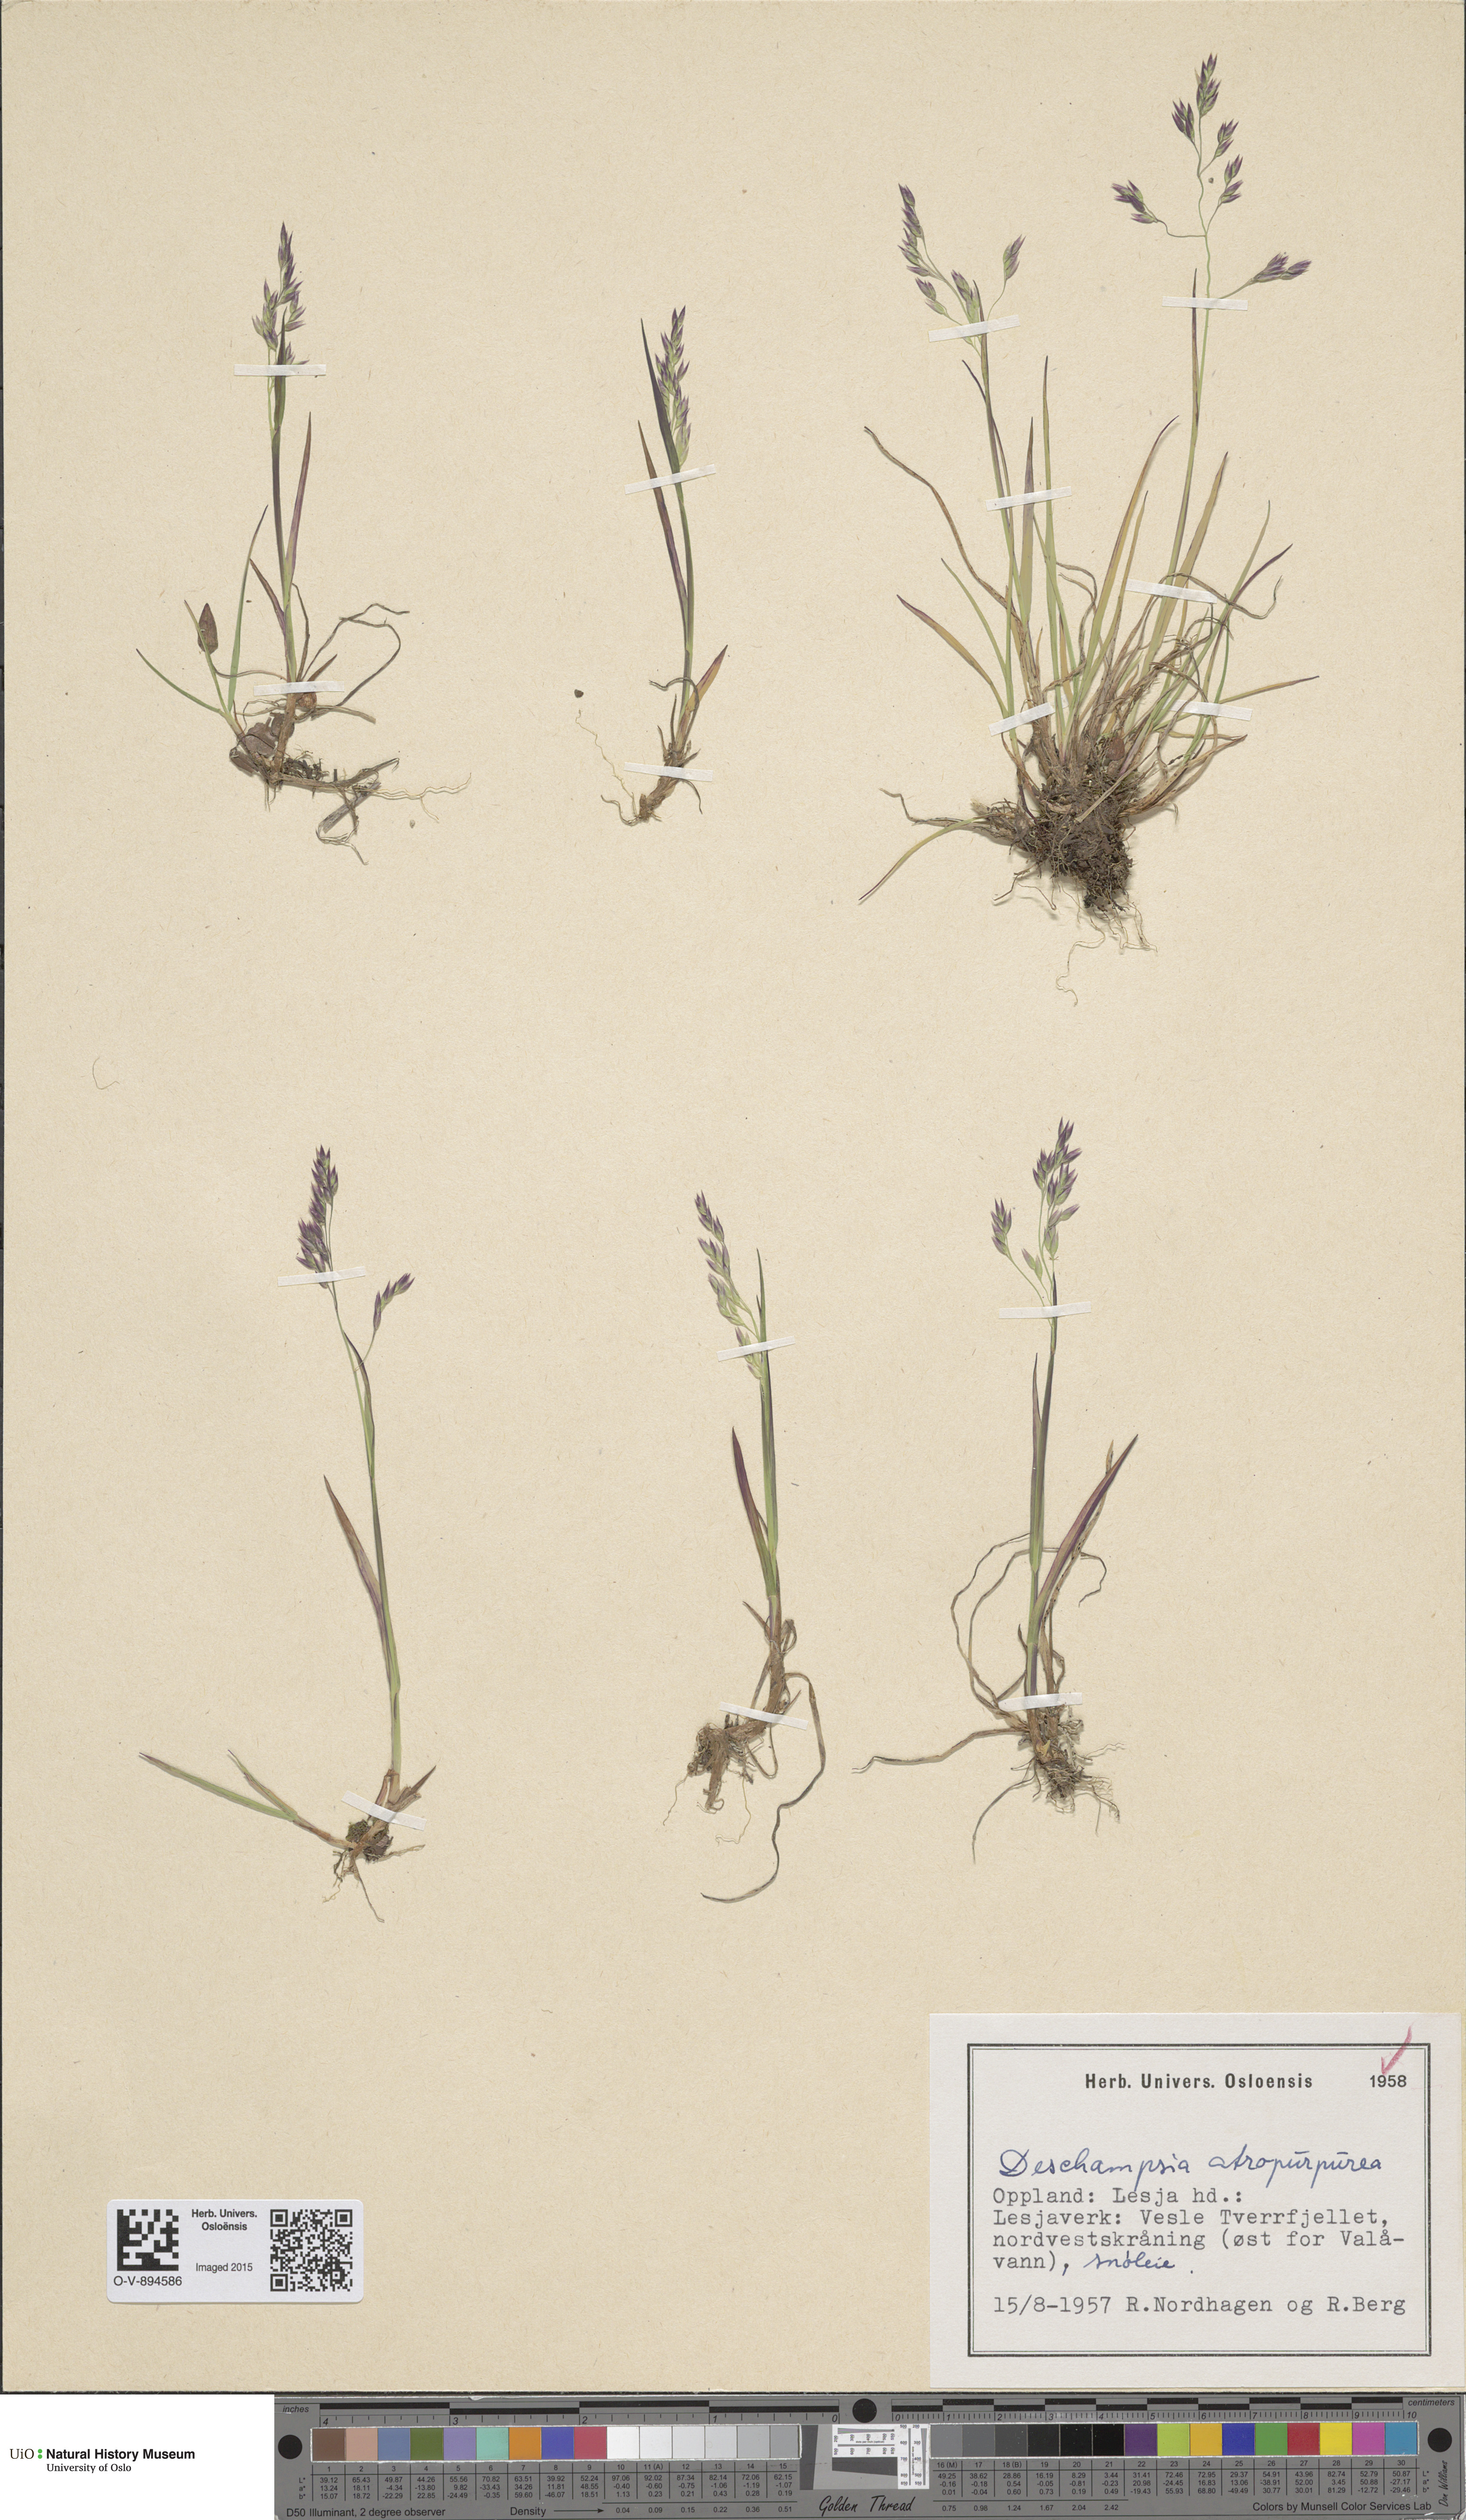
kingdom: Plantae
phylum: Tracheophyta
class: Liliopsida
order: Poales
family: Poaceae
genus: Vahlodea
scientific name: Vahlodea atropurpurea
